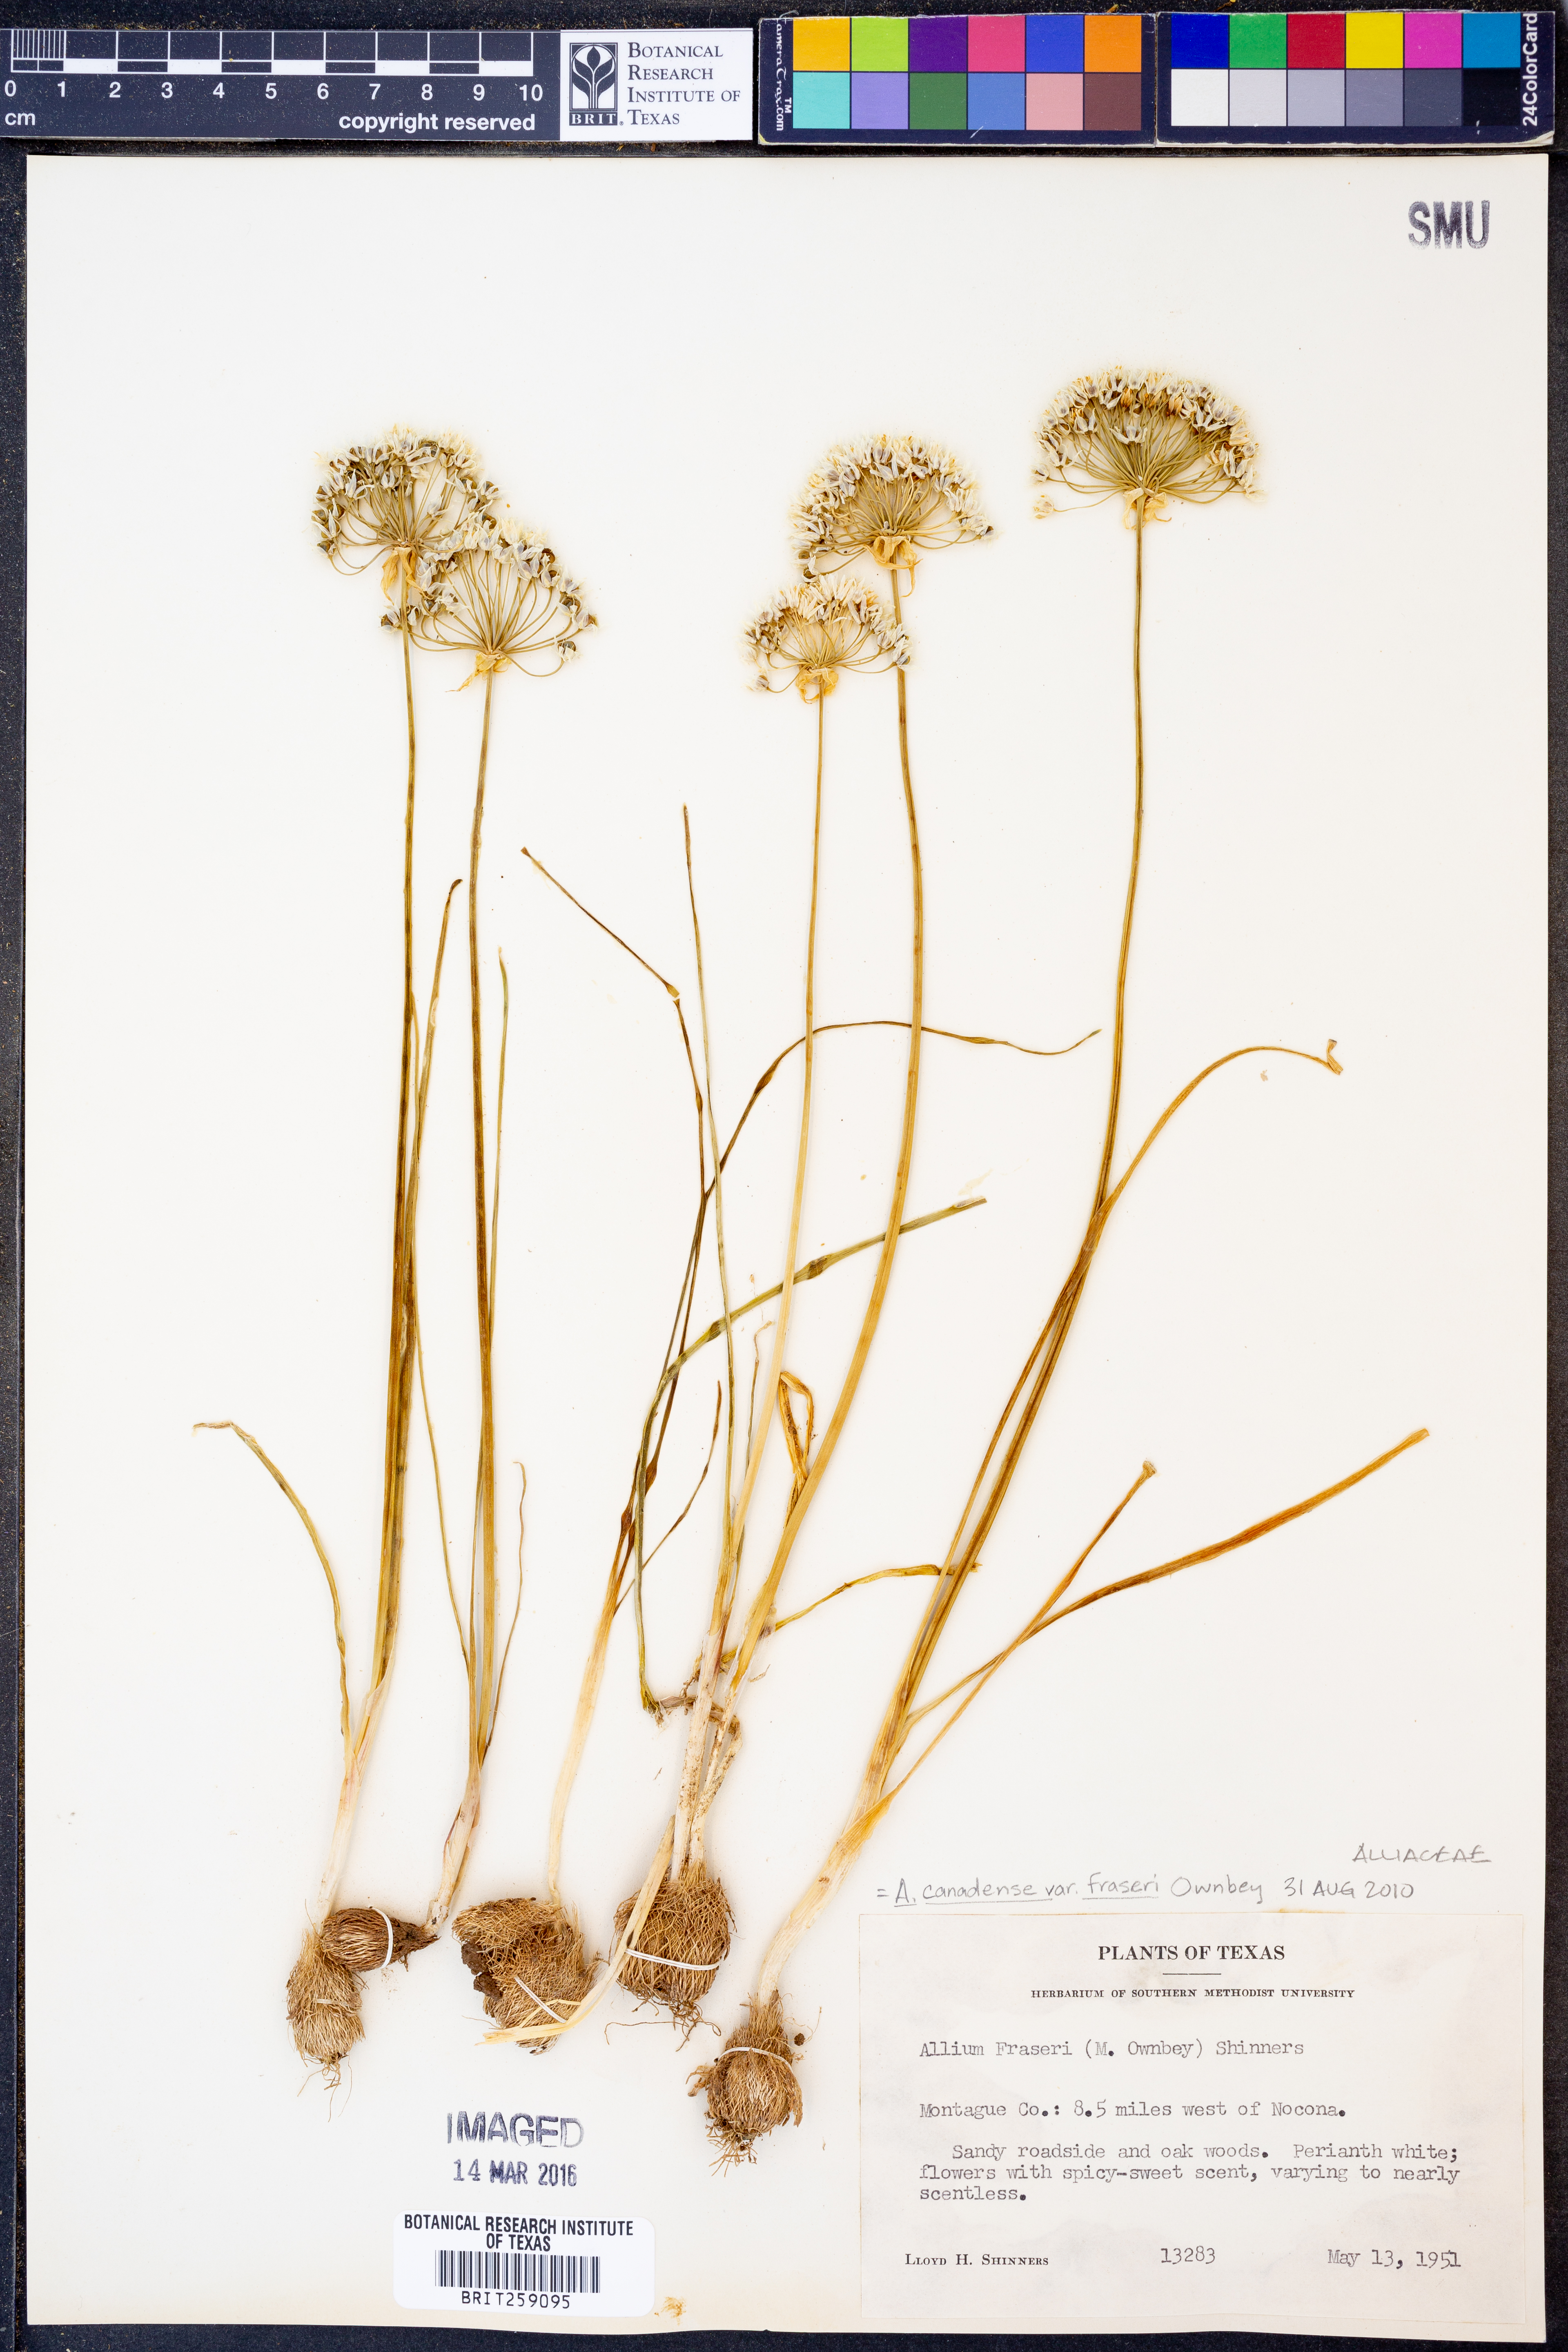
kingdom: Plantae
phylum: Tracheophyta
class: Liliopsida
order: Asparagales
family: Amaryllidaceae
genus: Allium
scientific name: Allium fraseri
